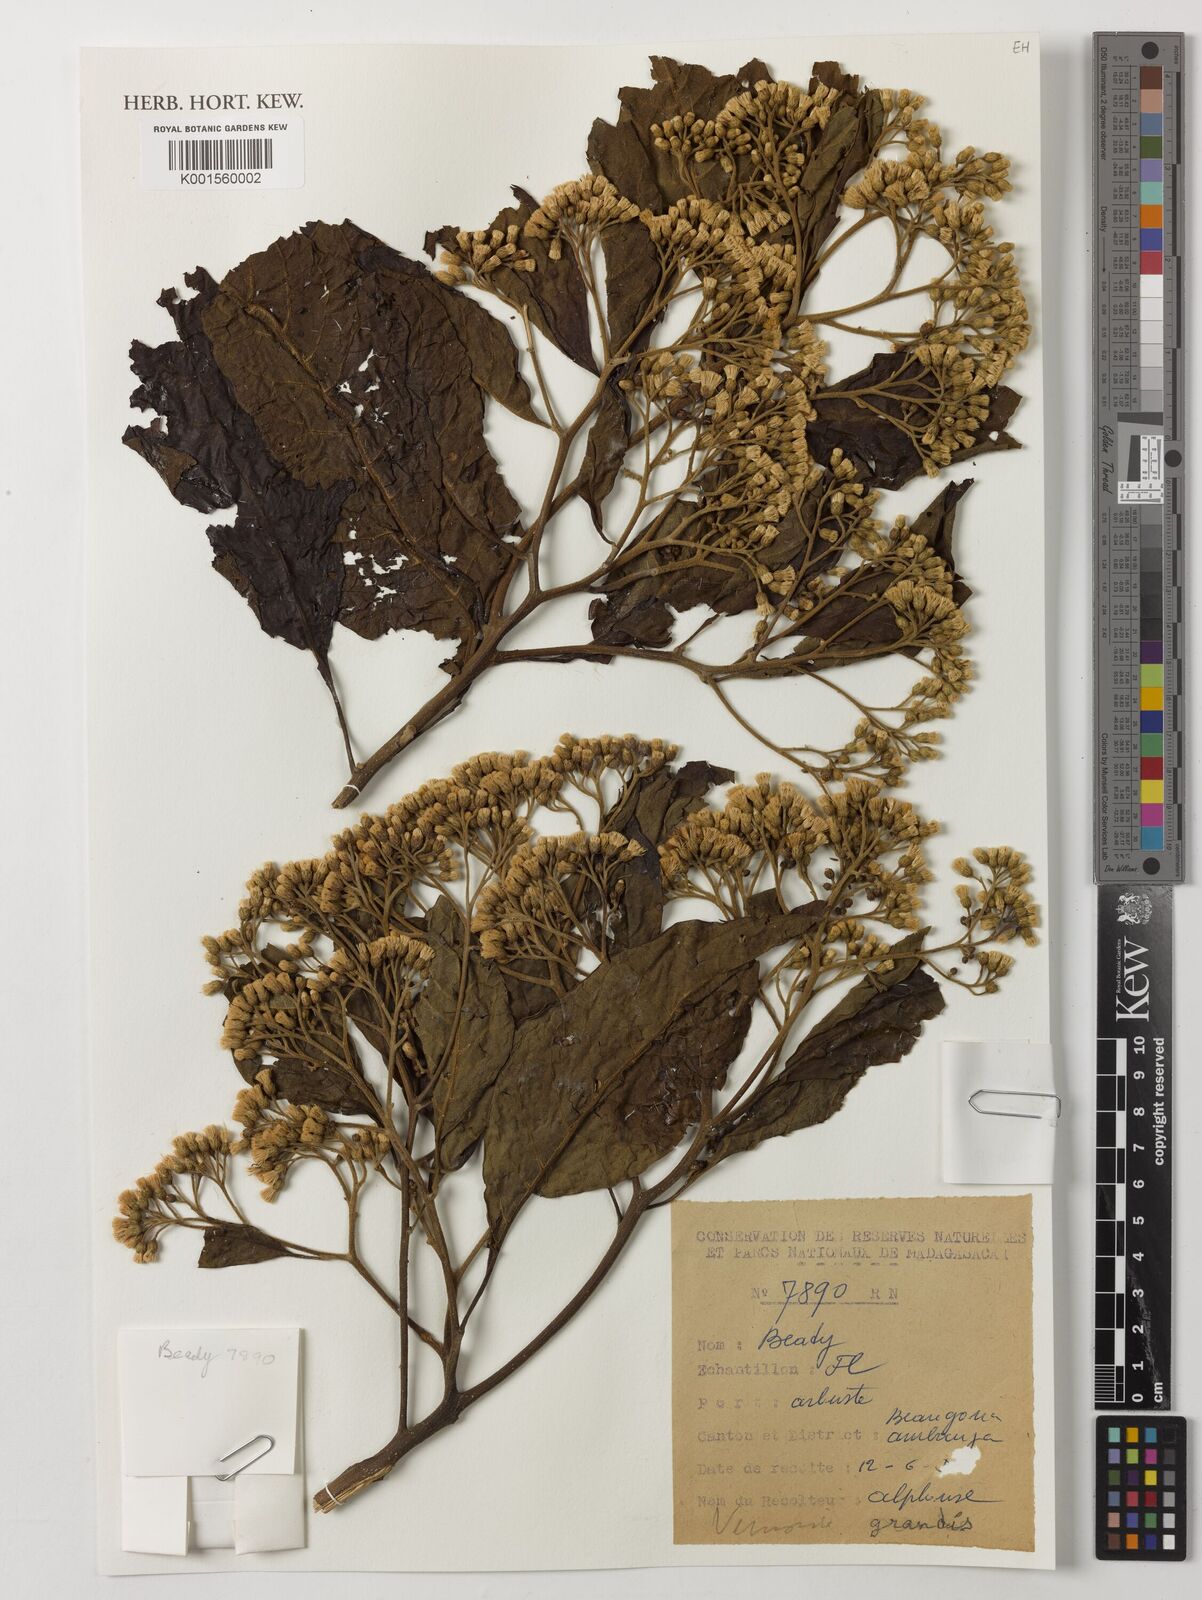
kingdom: Plantae
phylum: Tracheophyta
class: Magnoliopsida
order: Asterales
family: Asteraceae
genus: Vernonia
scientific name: Vernonia colorata
